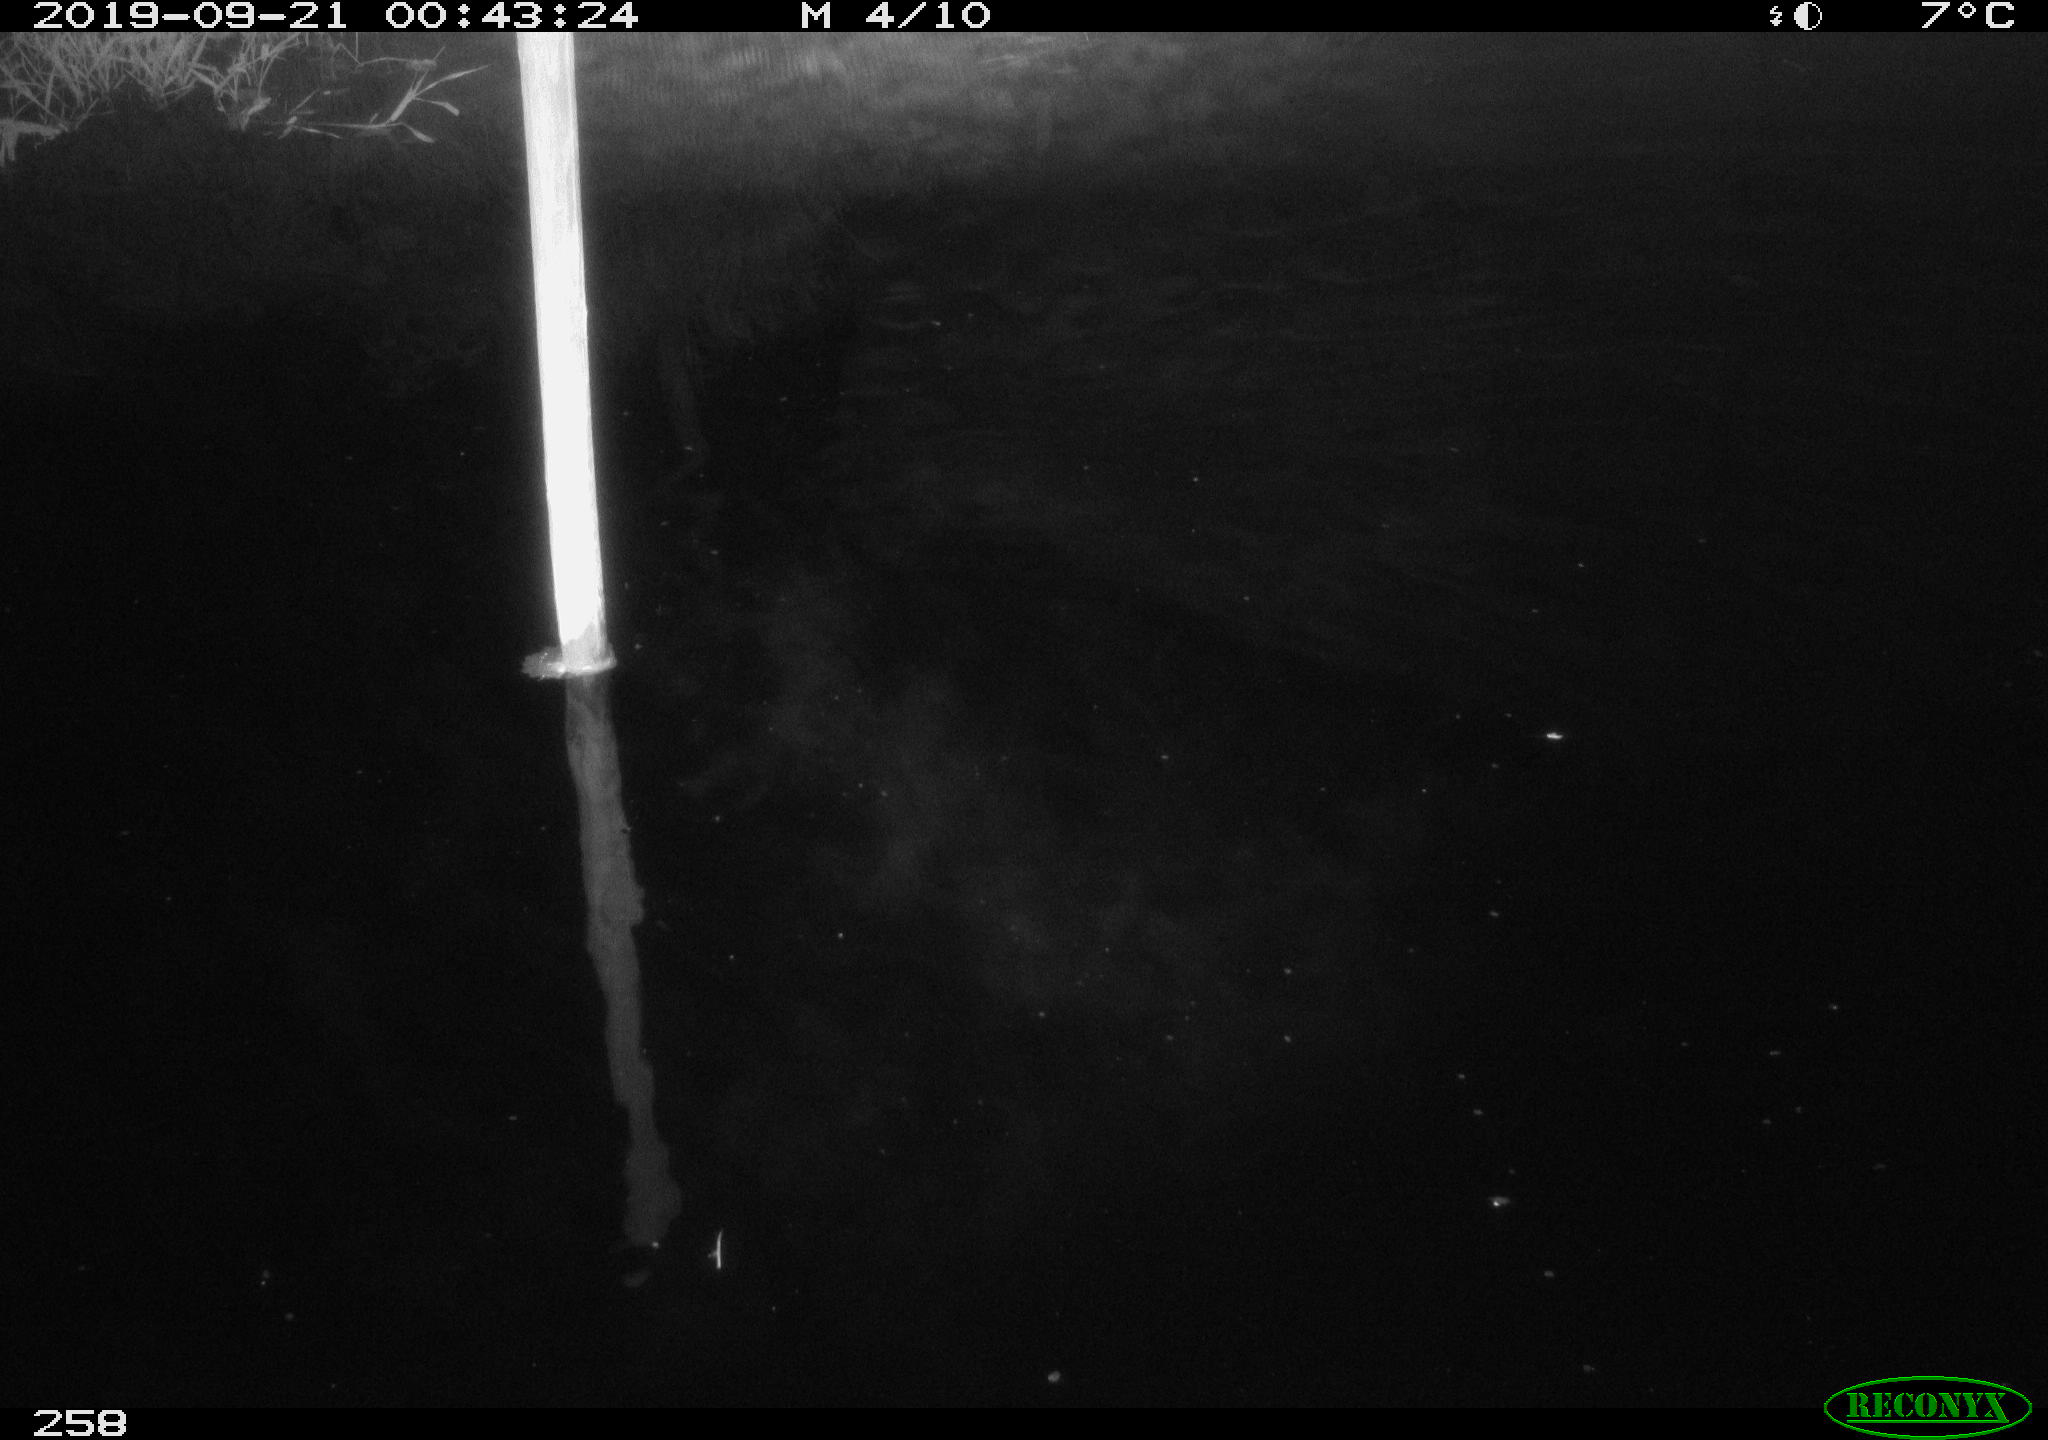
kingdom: Animalia
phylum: Chordata
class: Aves
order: Gruiformes
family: Rallidae
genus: Gallinula
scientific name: Gallinula chloropus
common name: Common moorhen
